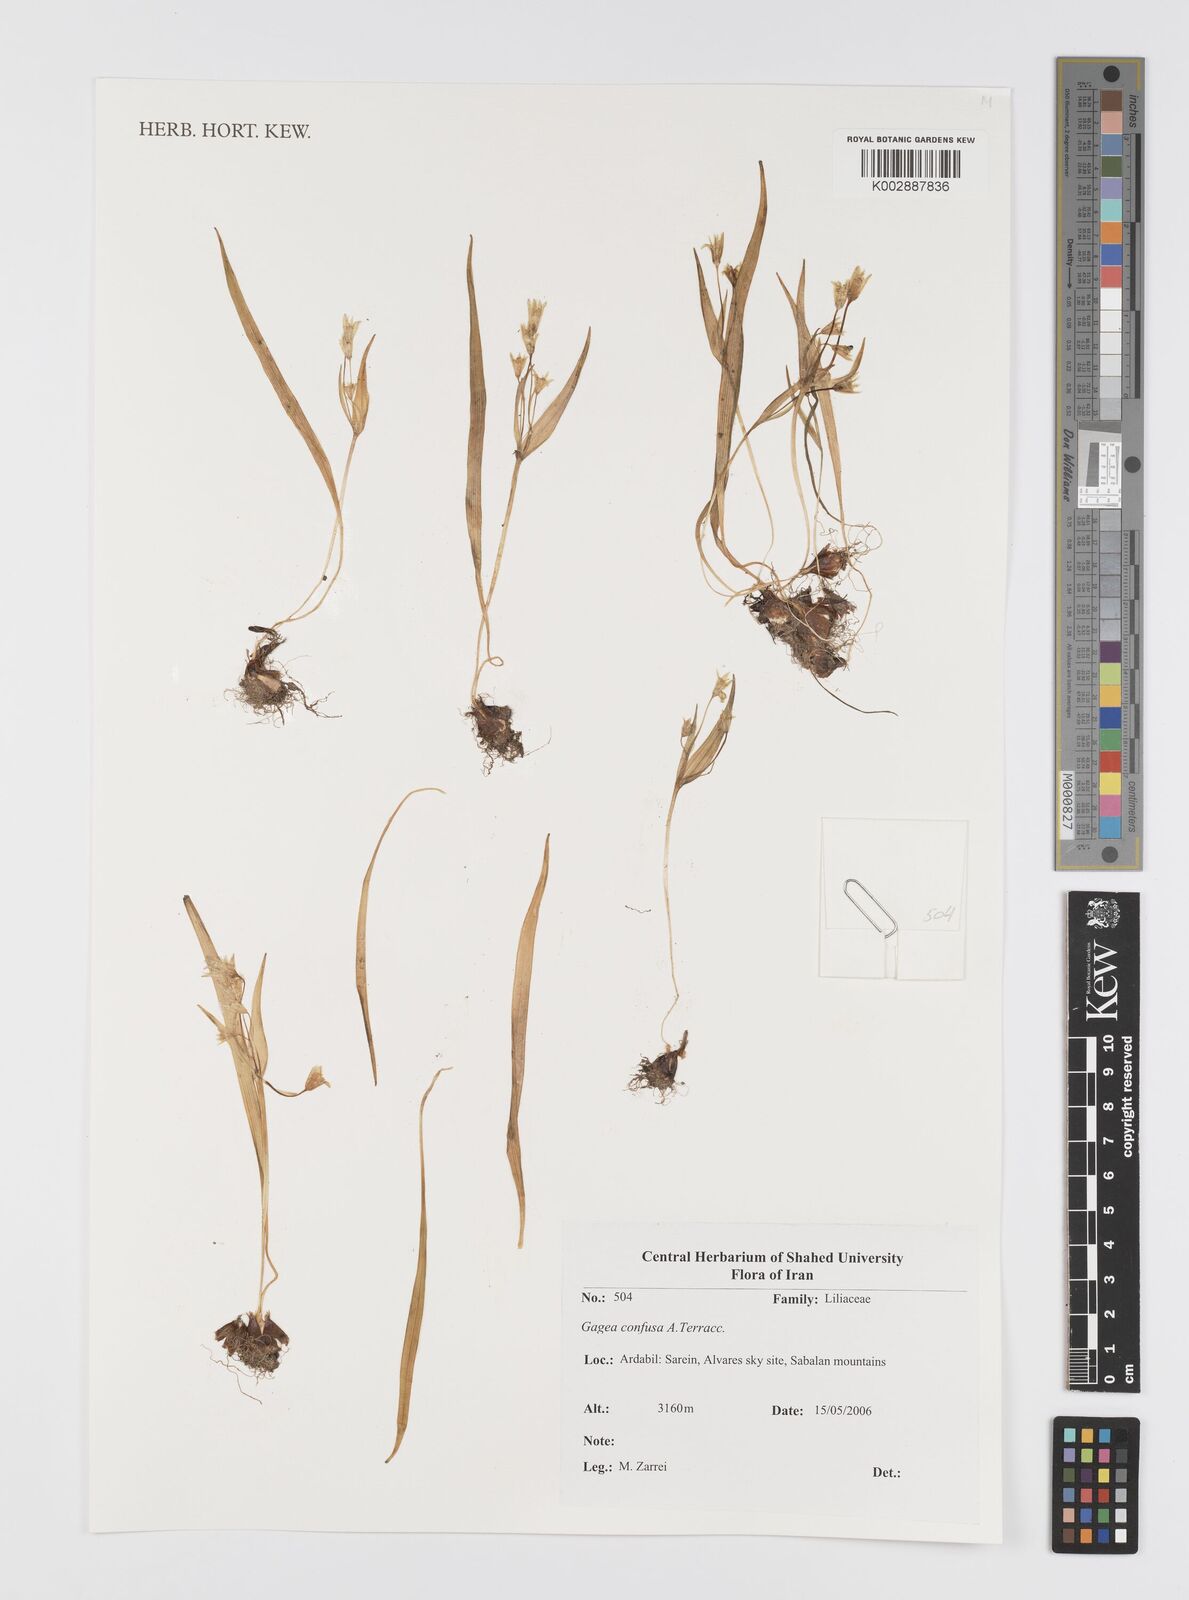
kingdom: Plantae
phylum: Tracheophyta
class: Liliopsida
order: Liliales
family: Liliaceae
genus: Gagea
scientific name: Gagea confusa
